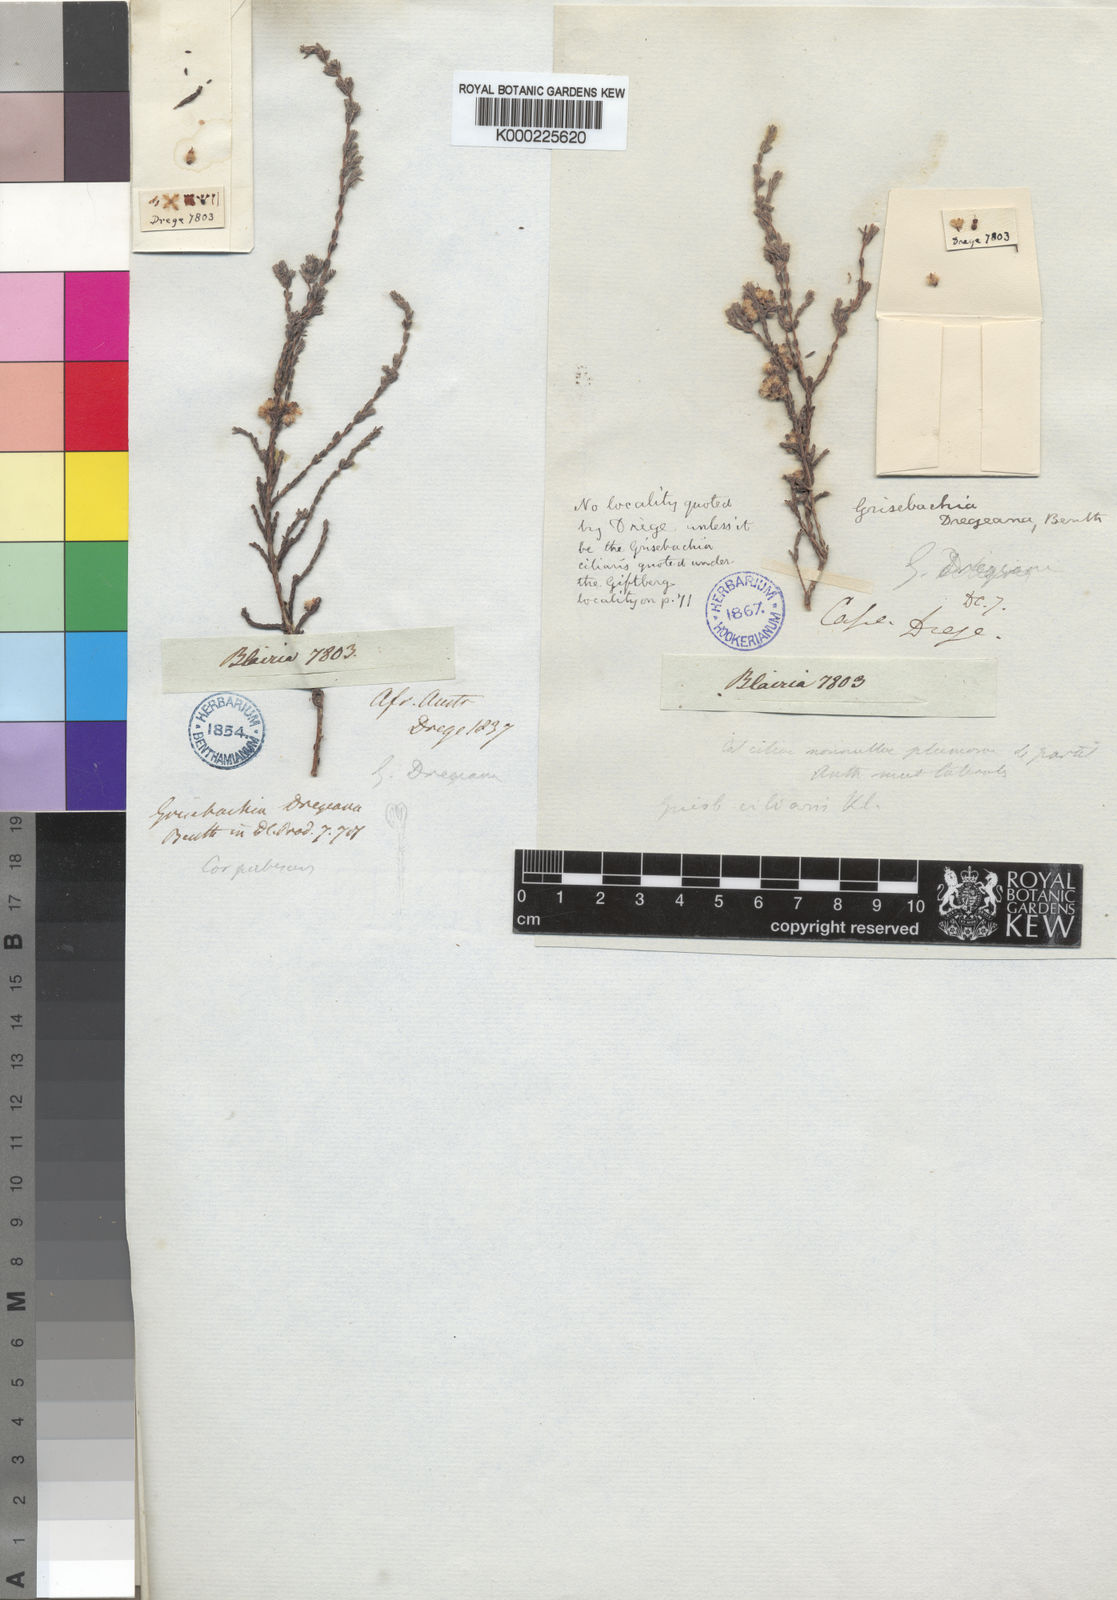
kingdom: Plantae
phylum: Tracheophyta
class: Magnoliopsida
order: Ericales
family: Ericaceae
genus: Erica
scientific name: Erica plumosa
